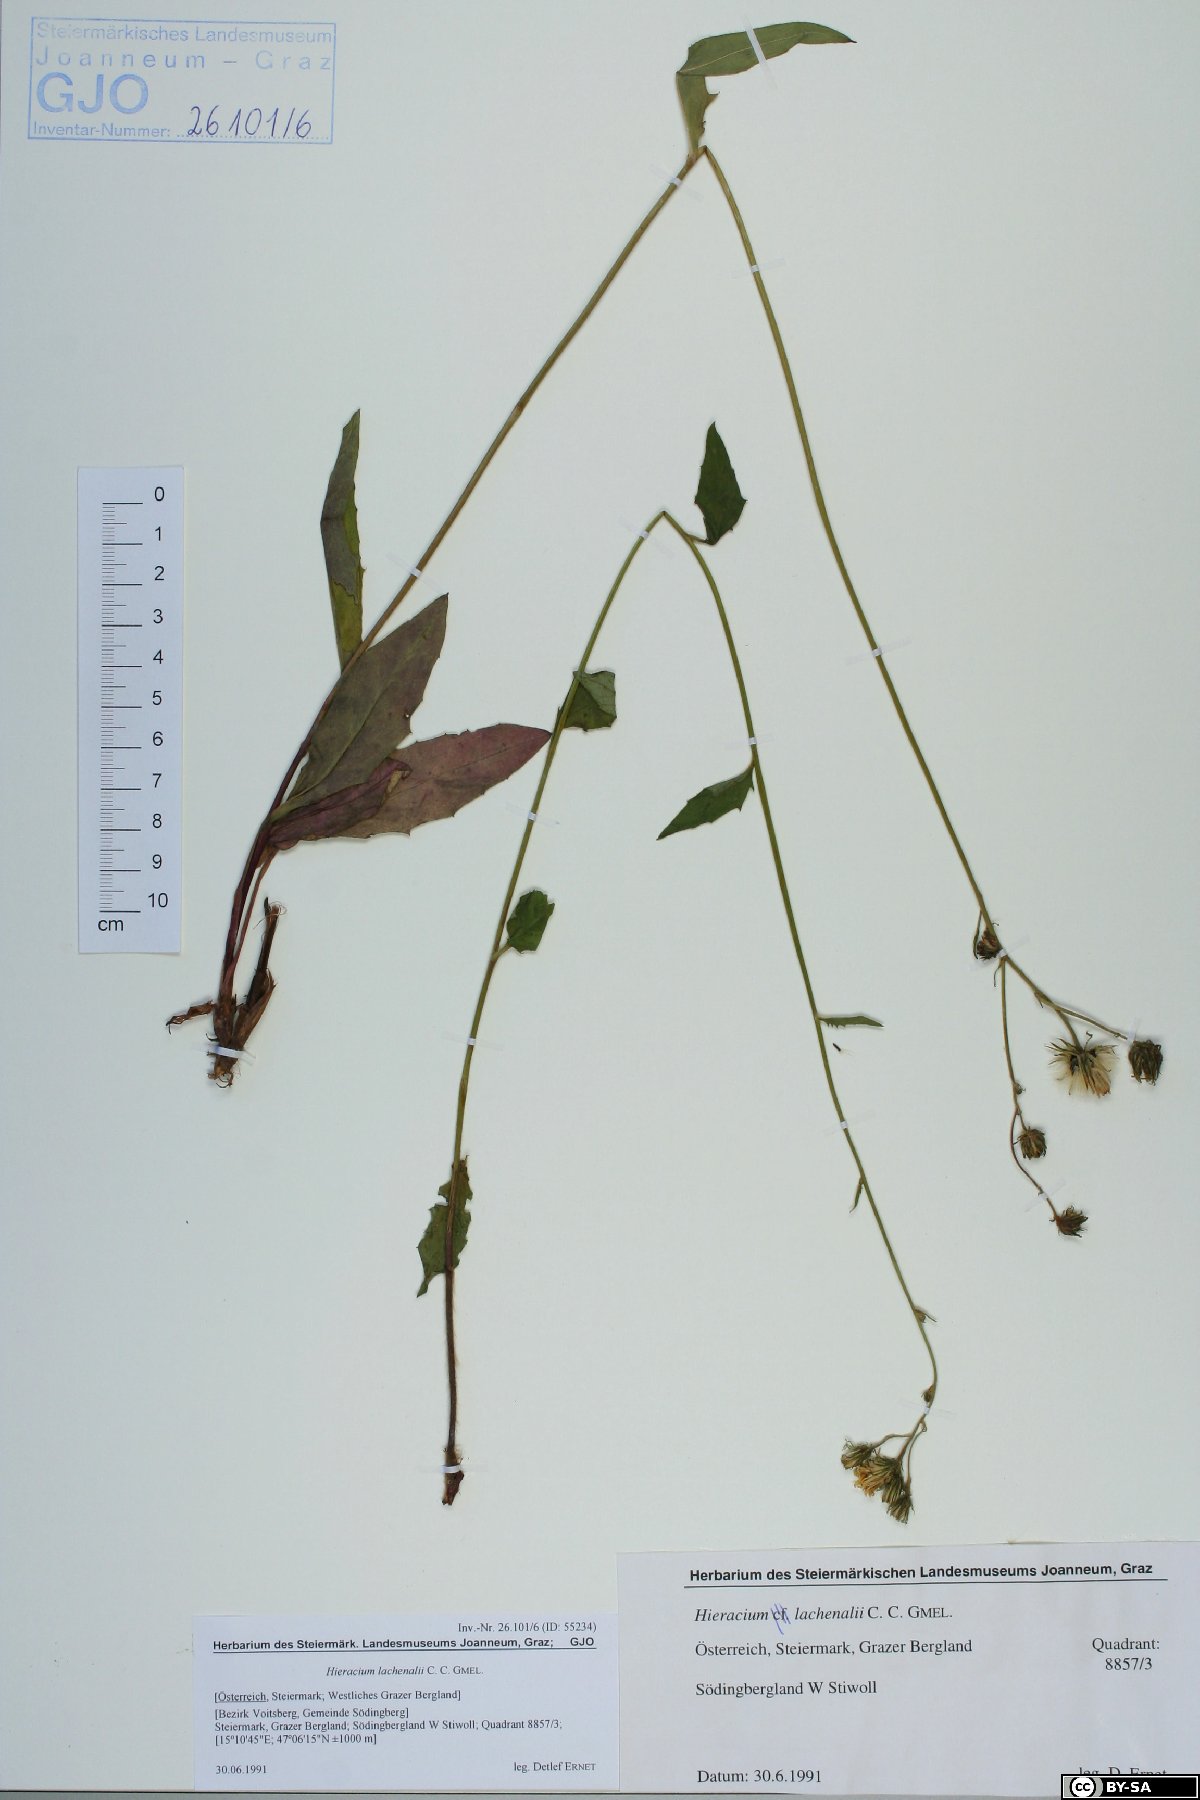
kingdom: Plantae
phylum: Tracheophyta
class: Magnoliopsida
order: Asterales
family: Asteraceae
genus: Hieracium
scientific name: Hieracium lachenalii
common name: Common hawkweed
